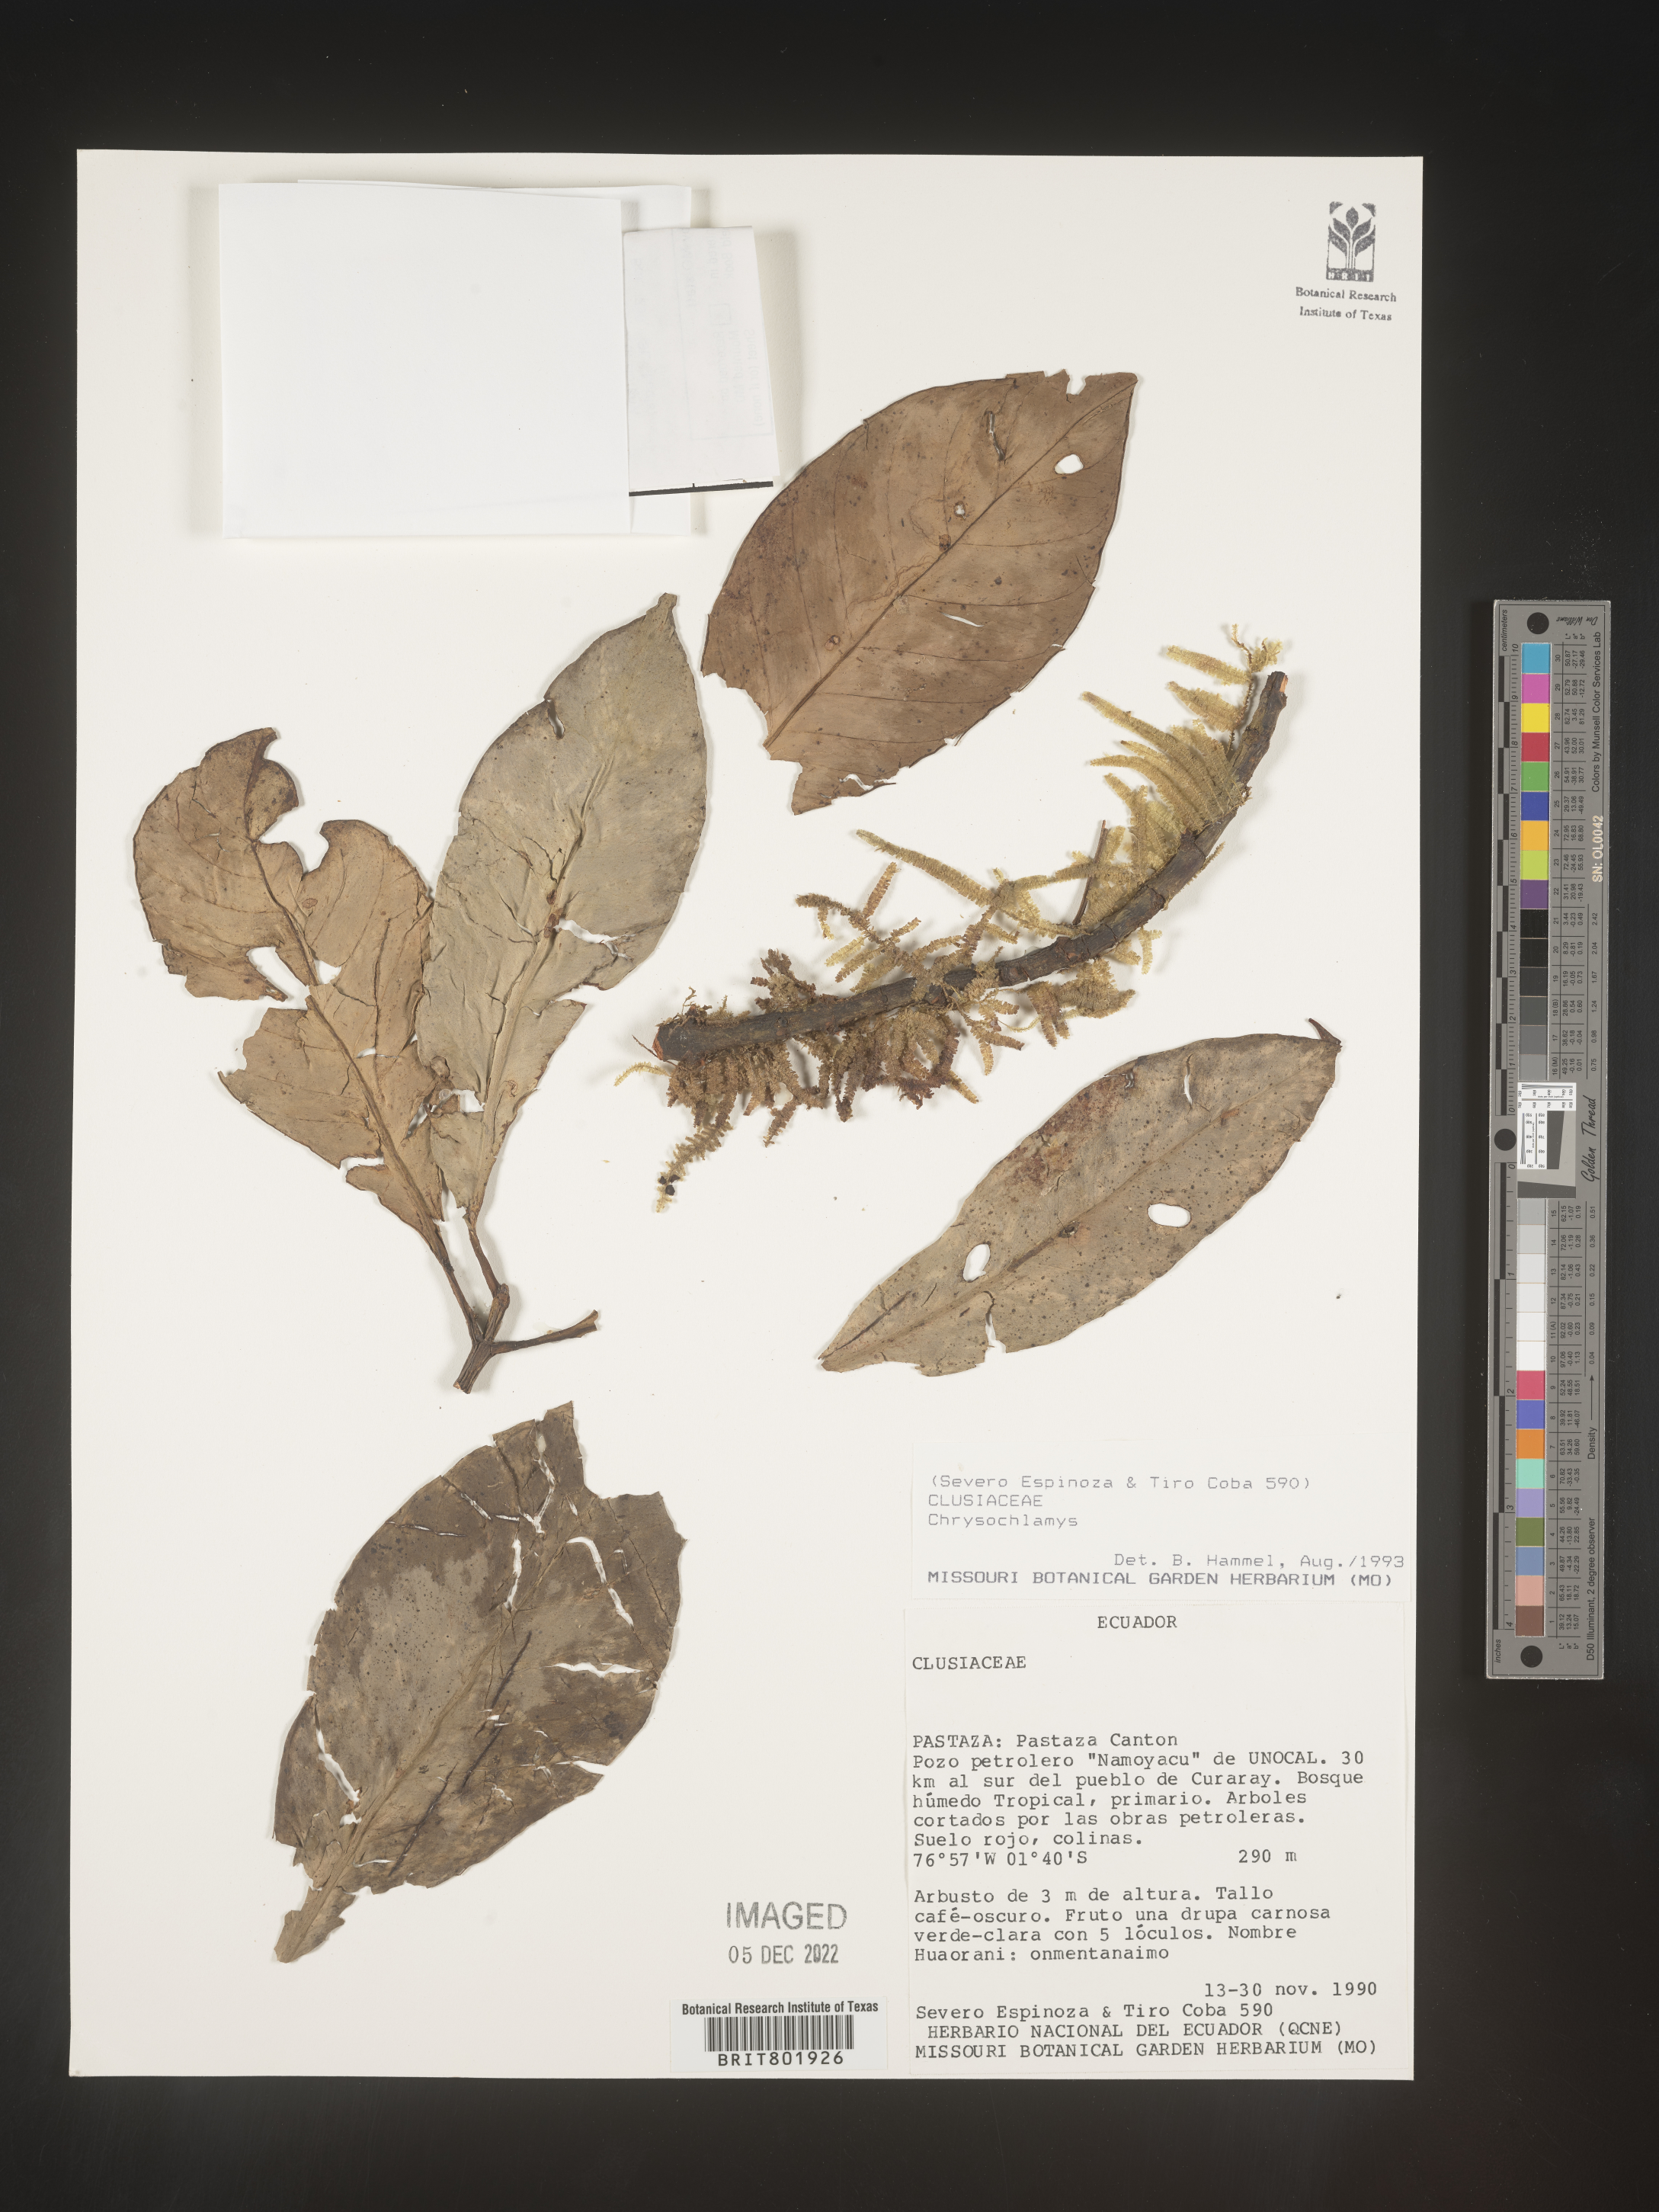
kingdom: Plantae
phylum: Tracheophyta
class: Magnoliopsida
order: Malpighiales
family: Clusiaceae
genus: Chrysochlamys
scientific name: Chrysochlamys
